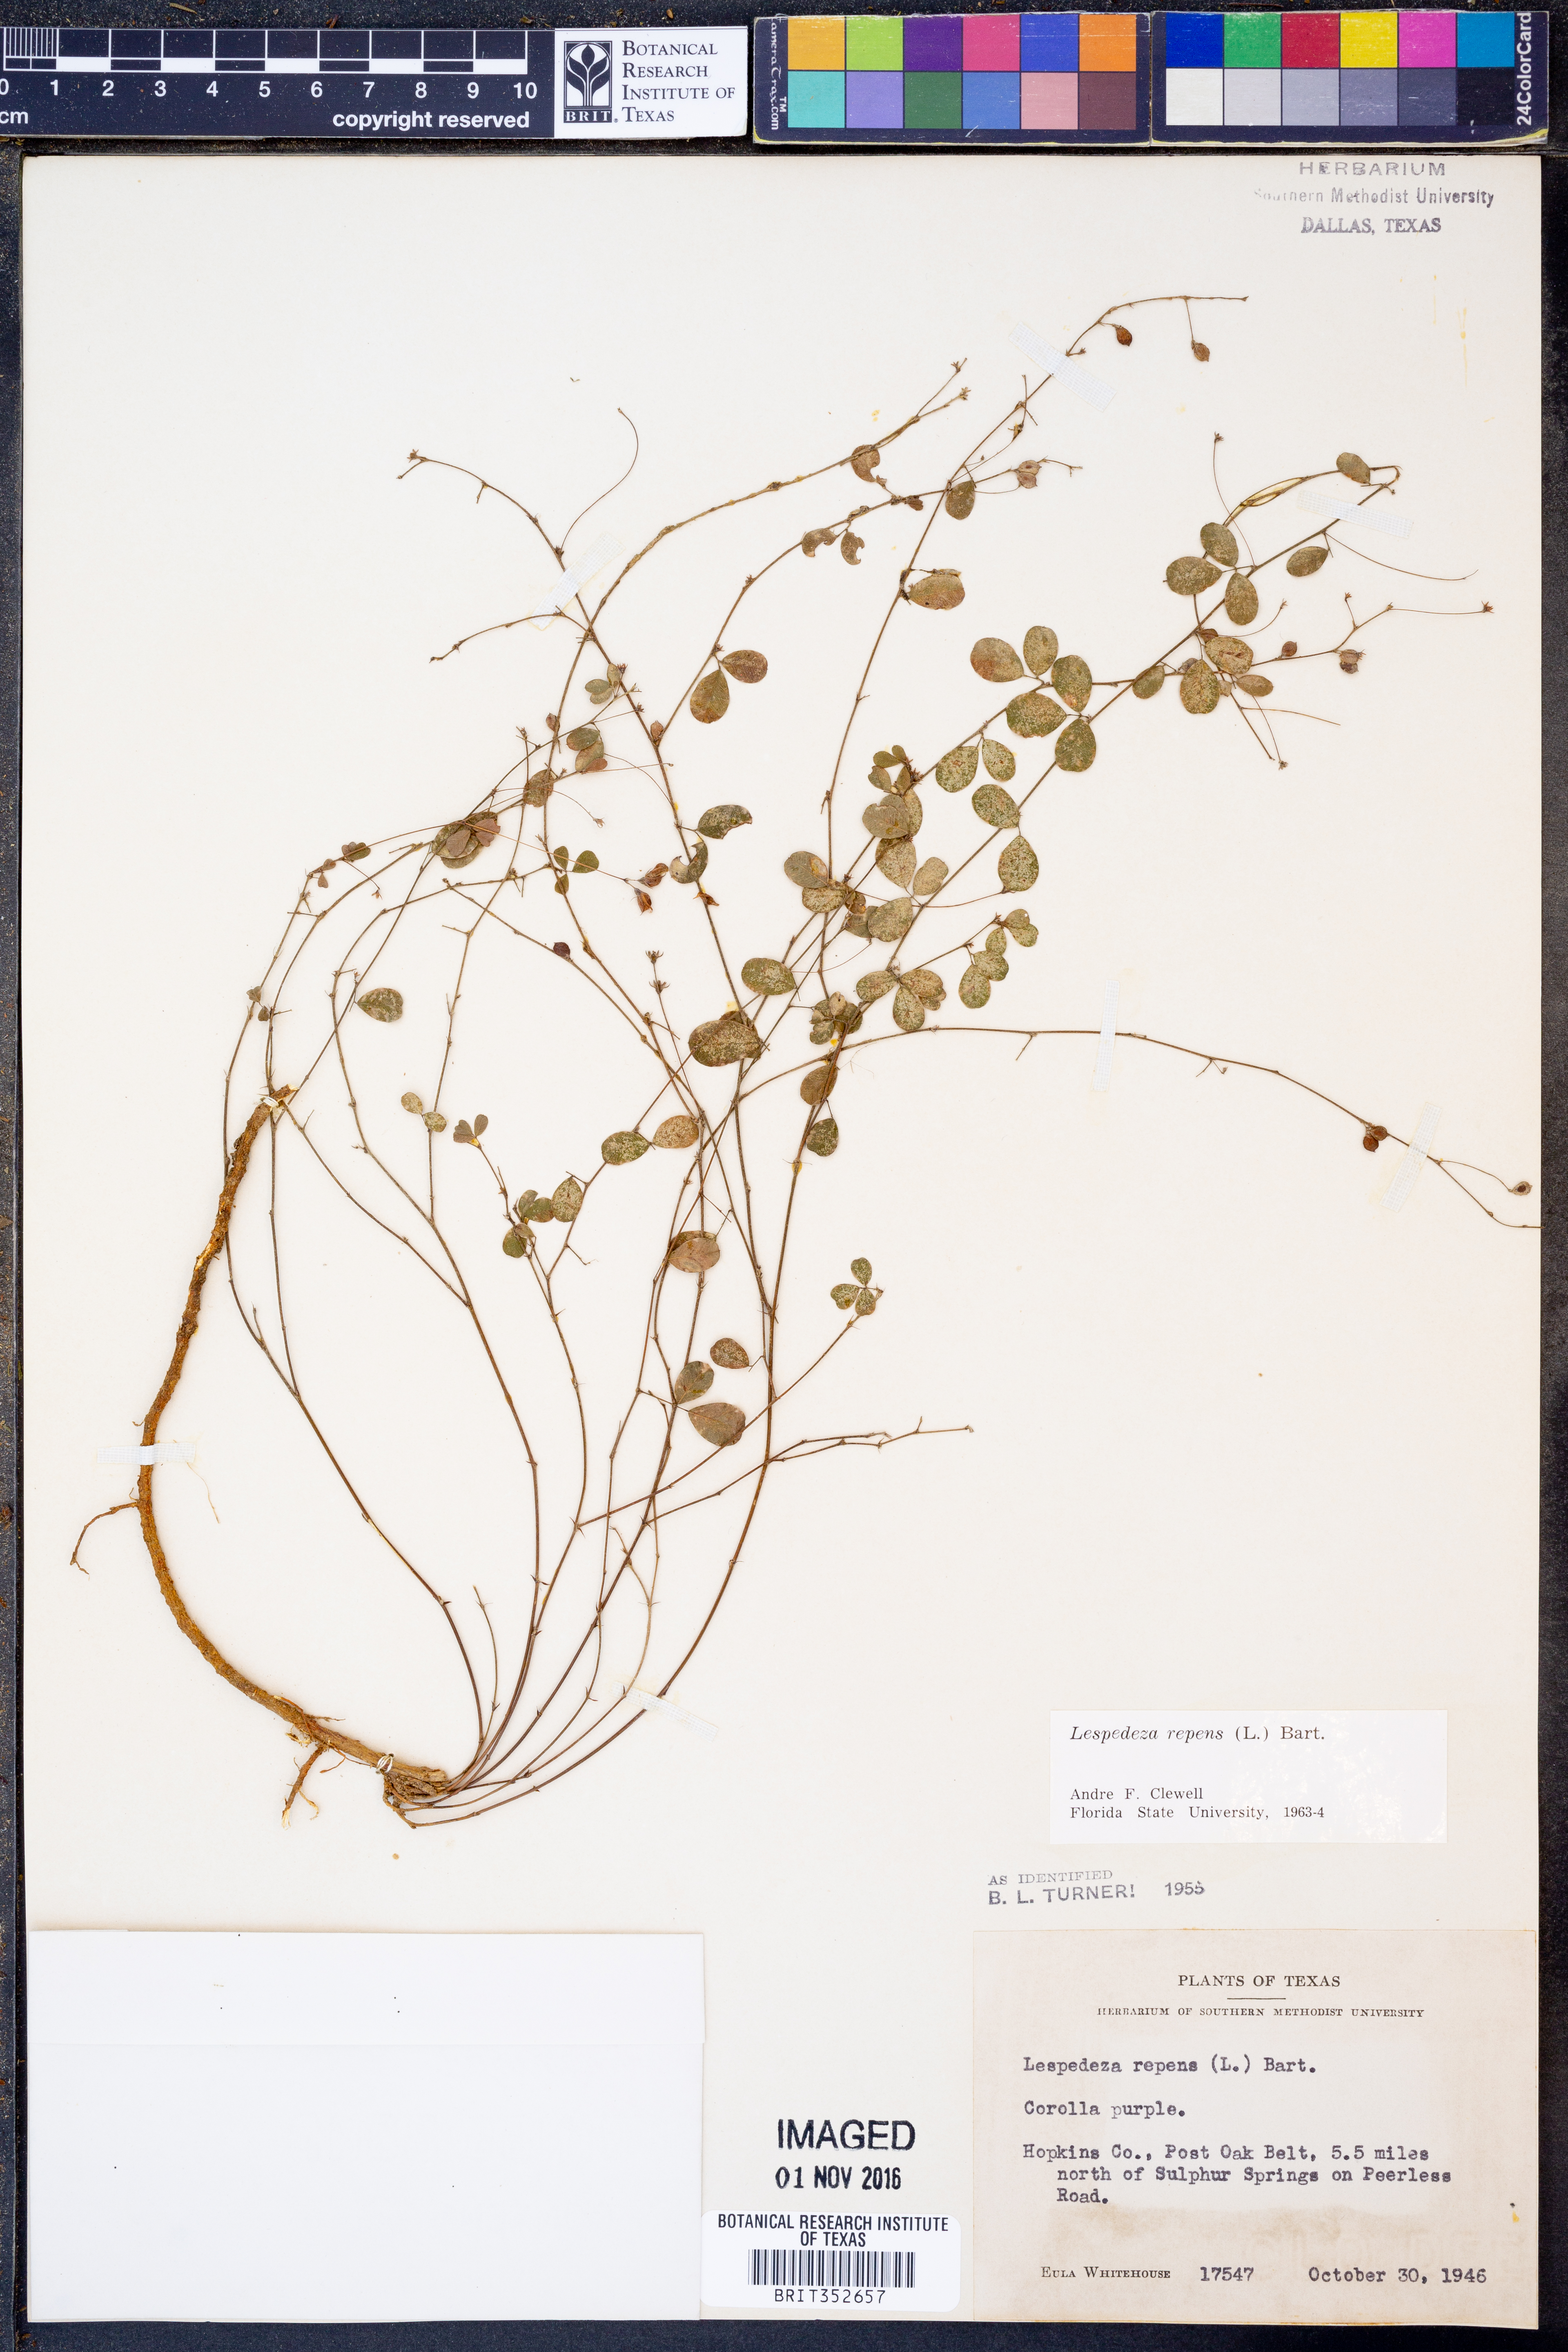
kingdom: Plantae
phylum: Tracheophyta
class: Magnoliopsida
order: Fabales
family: Fabaceae
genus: Lespedeza
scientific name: Lespedeza repens
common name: Creeping bush-clover
